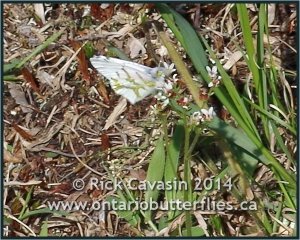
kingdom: Animalia
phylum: Arthropoda
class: Insecta
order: Lepidoptera
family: Pieridae
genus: Euchloe
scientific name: Euchloe olympia
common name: Olympia Marble
